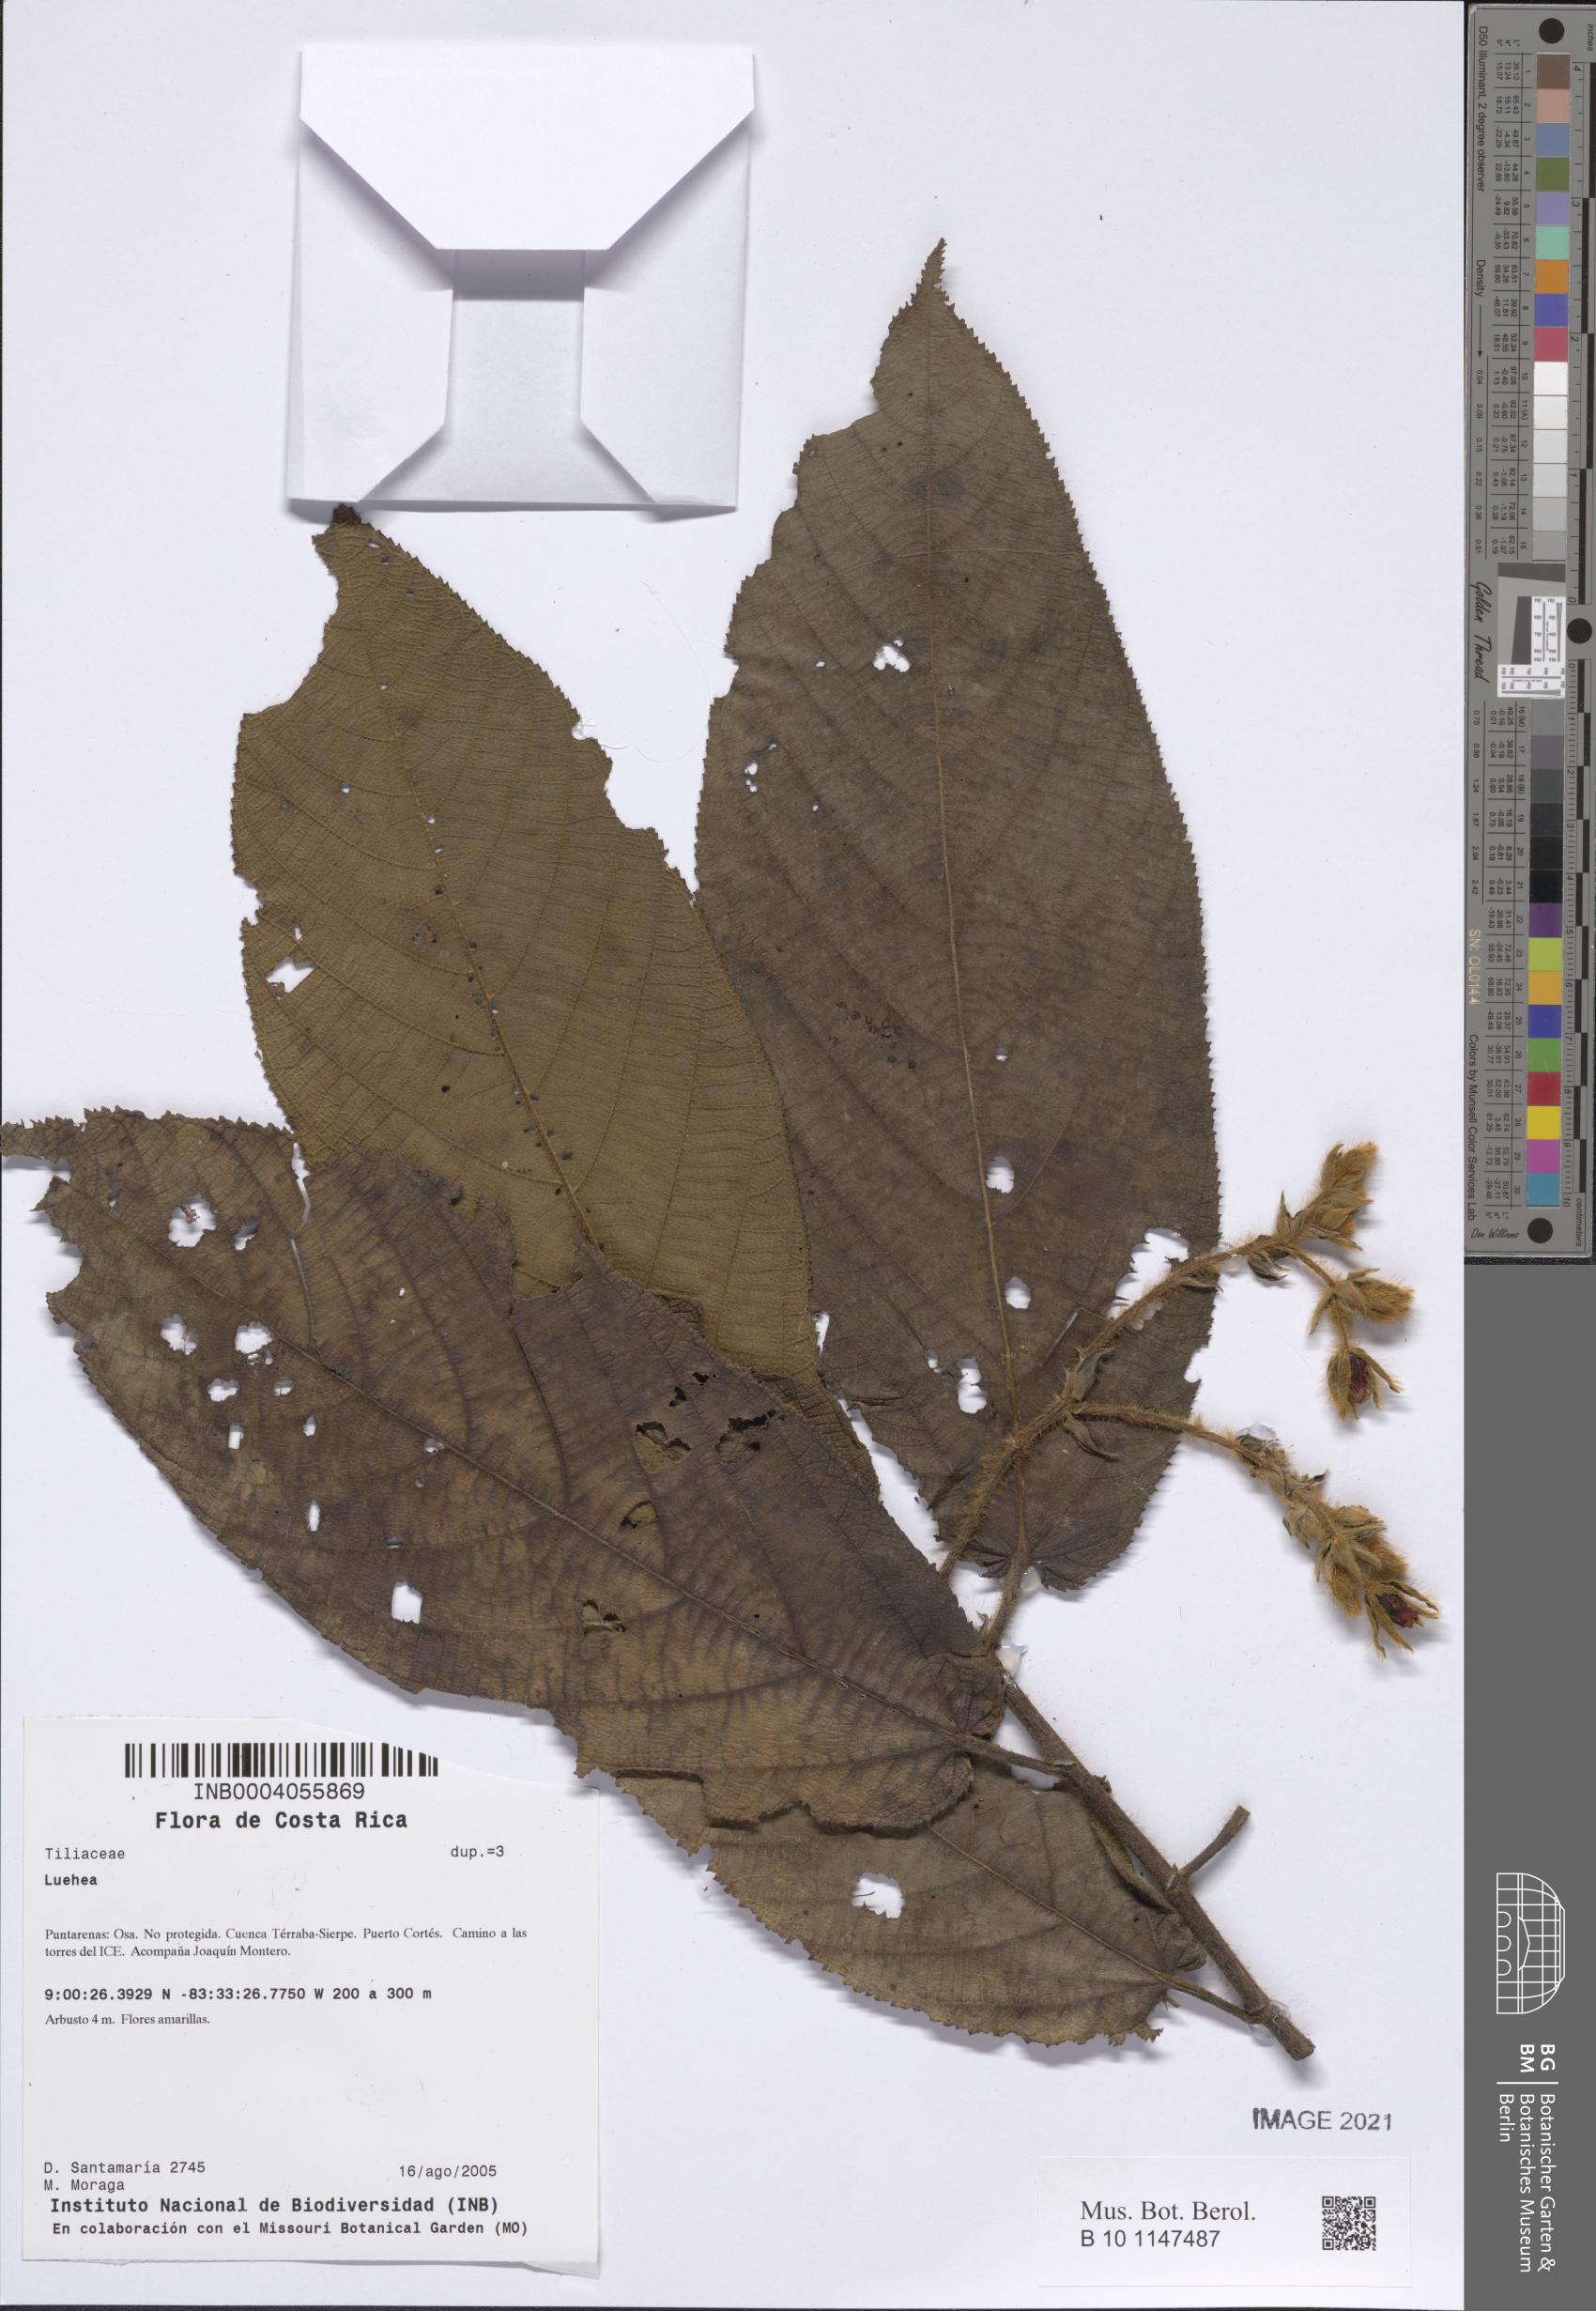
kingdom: Plantae
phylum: Tracheophyta
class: Magnoliopsida
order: Malvales
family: Malvaceae
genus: Luehea
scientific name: Luehea
